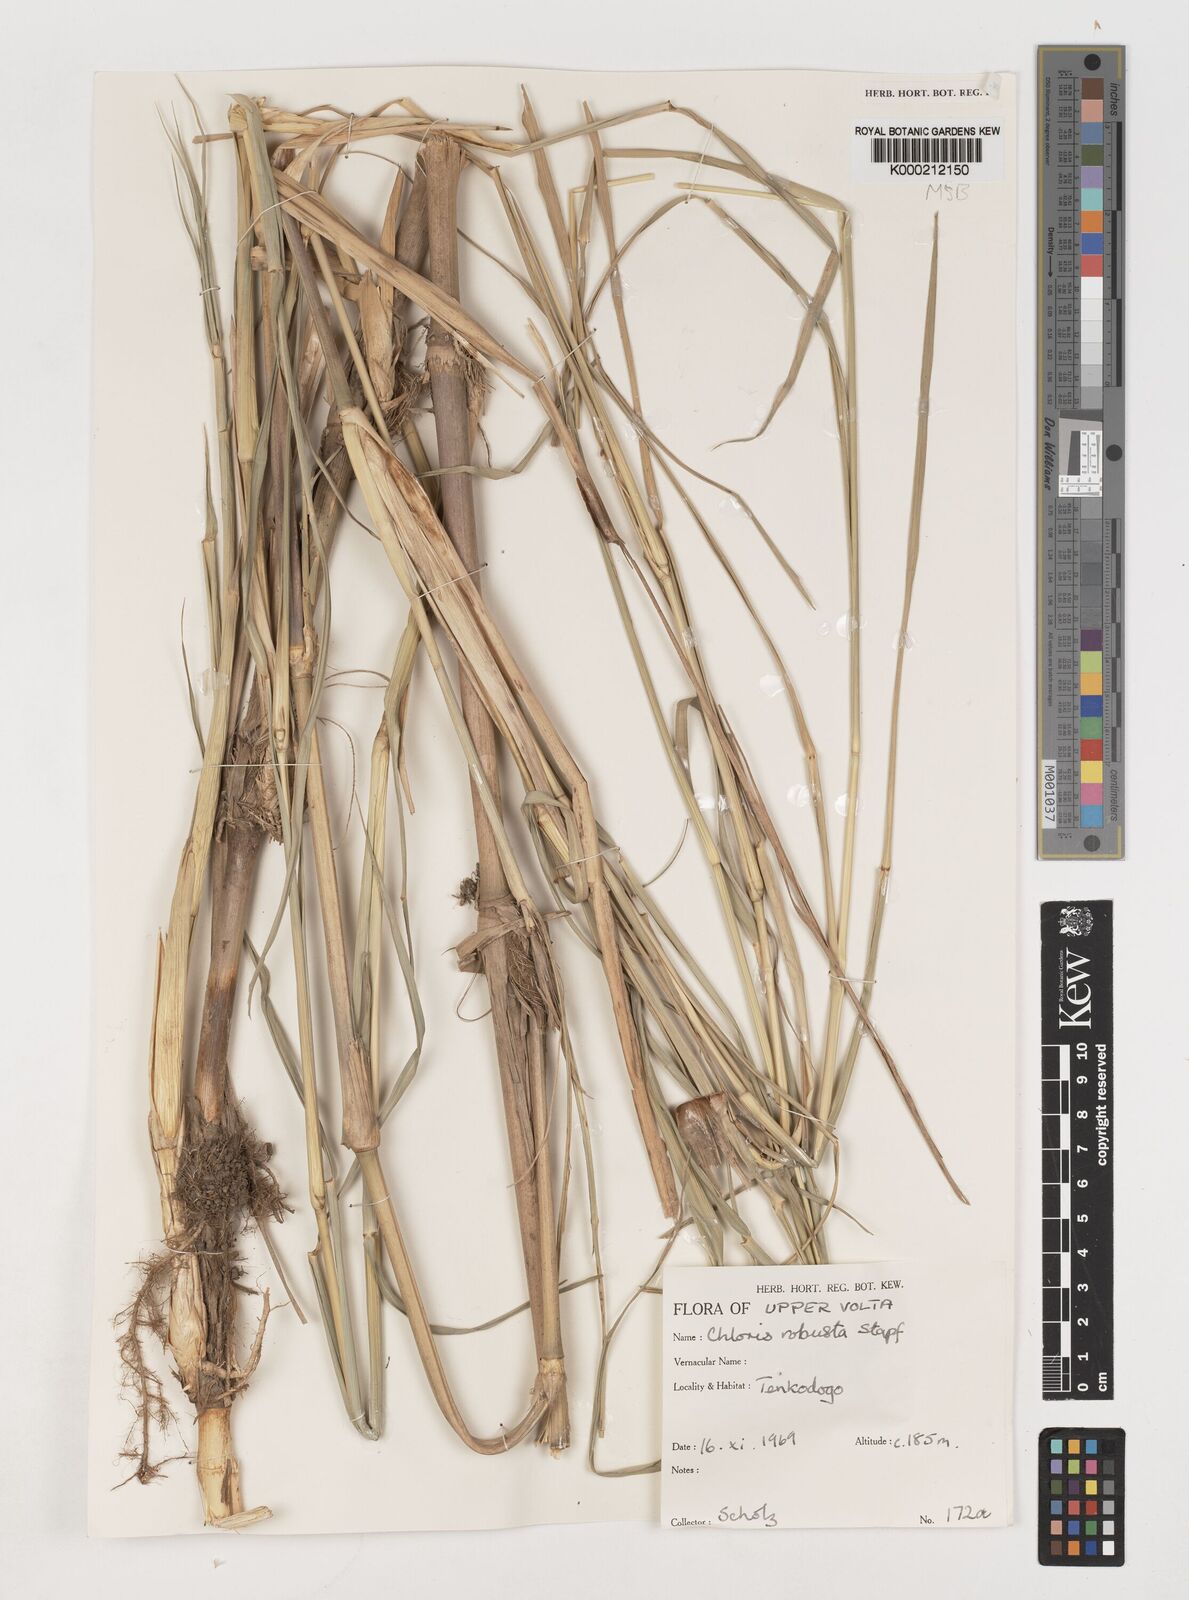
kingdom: Plantae
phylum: Tracheophyta
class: Liliopsida
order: Poales
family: Poaceae
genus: Chloris
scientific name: Chloris robusta
